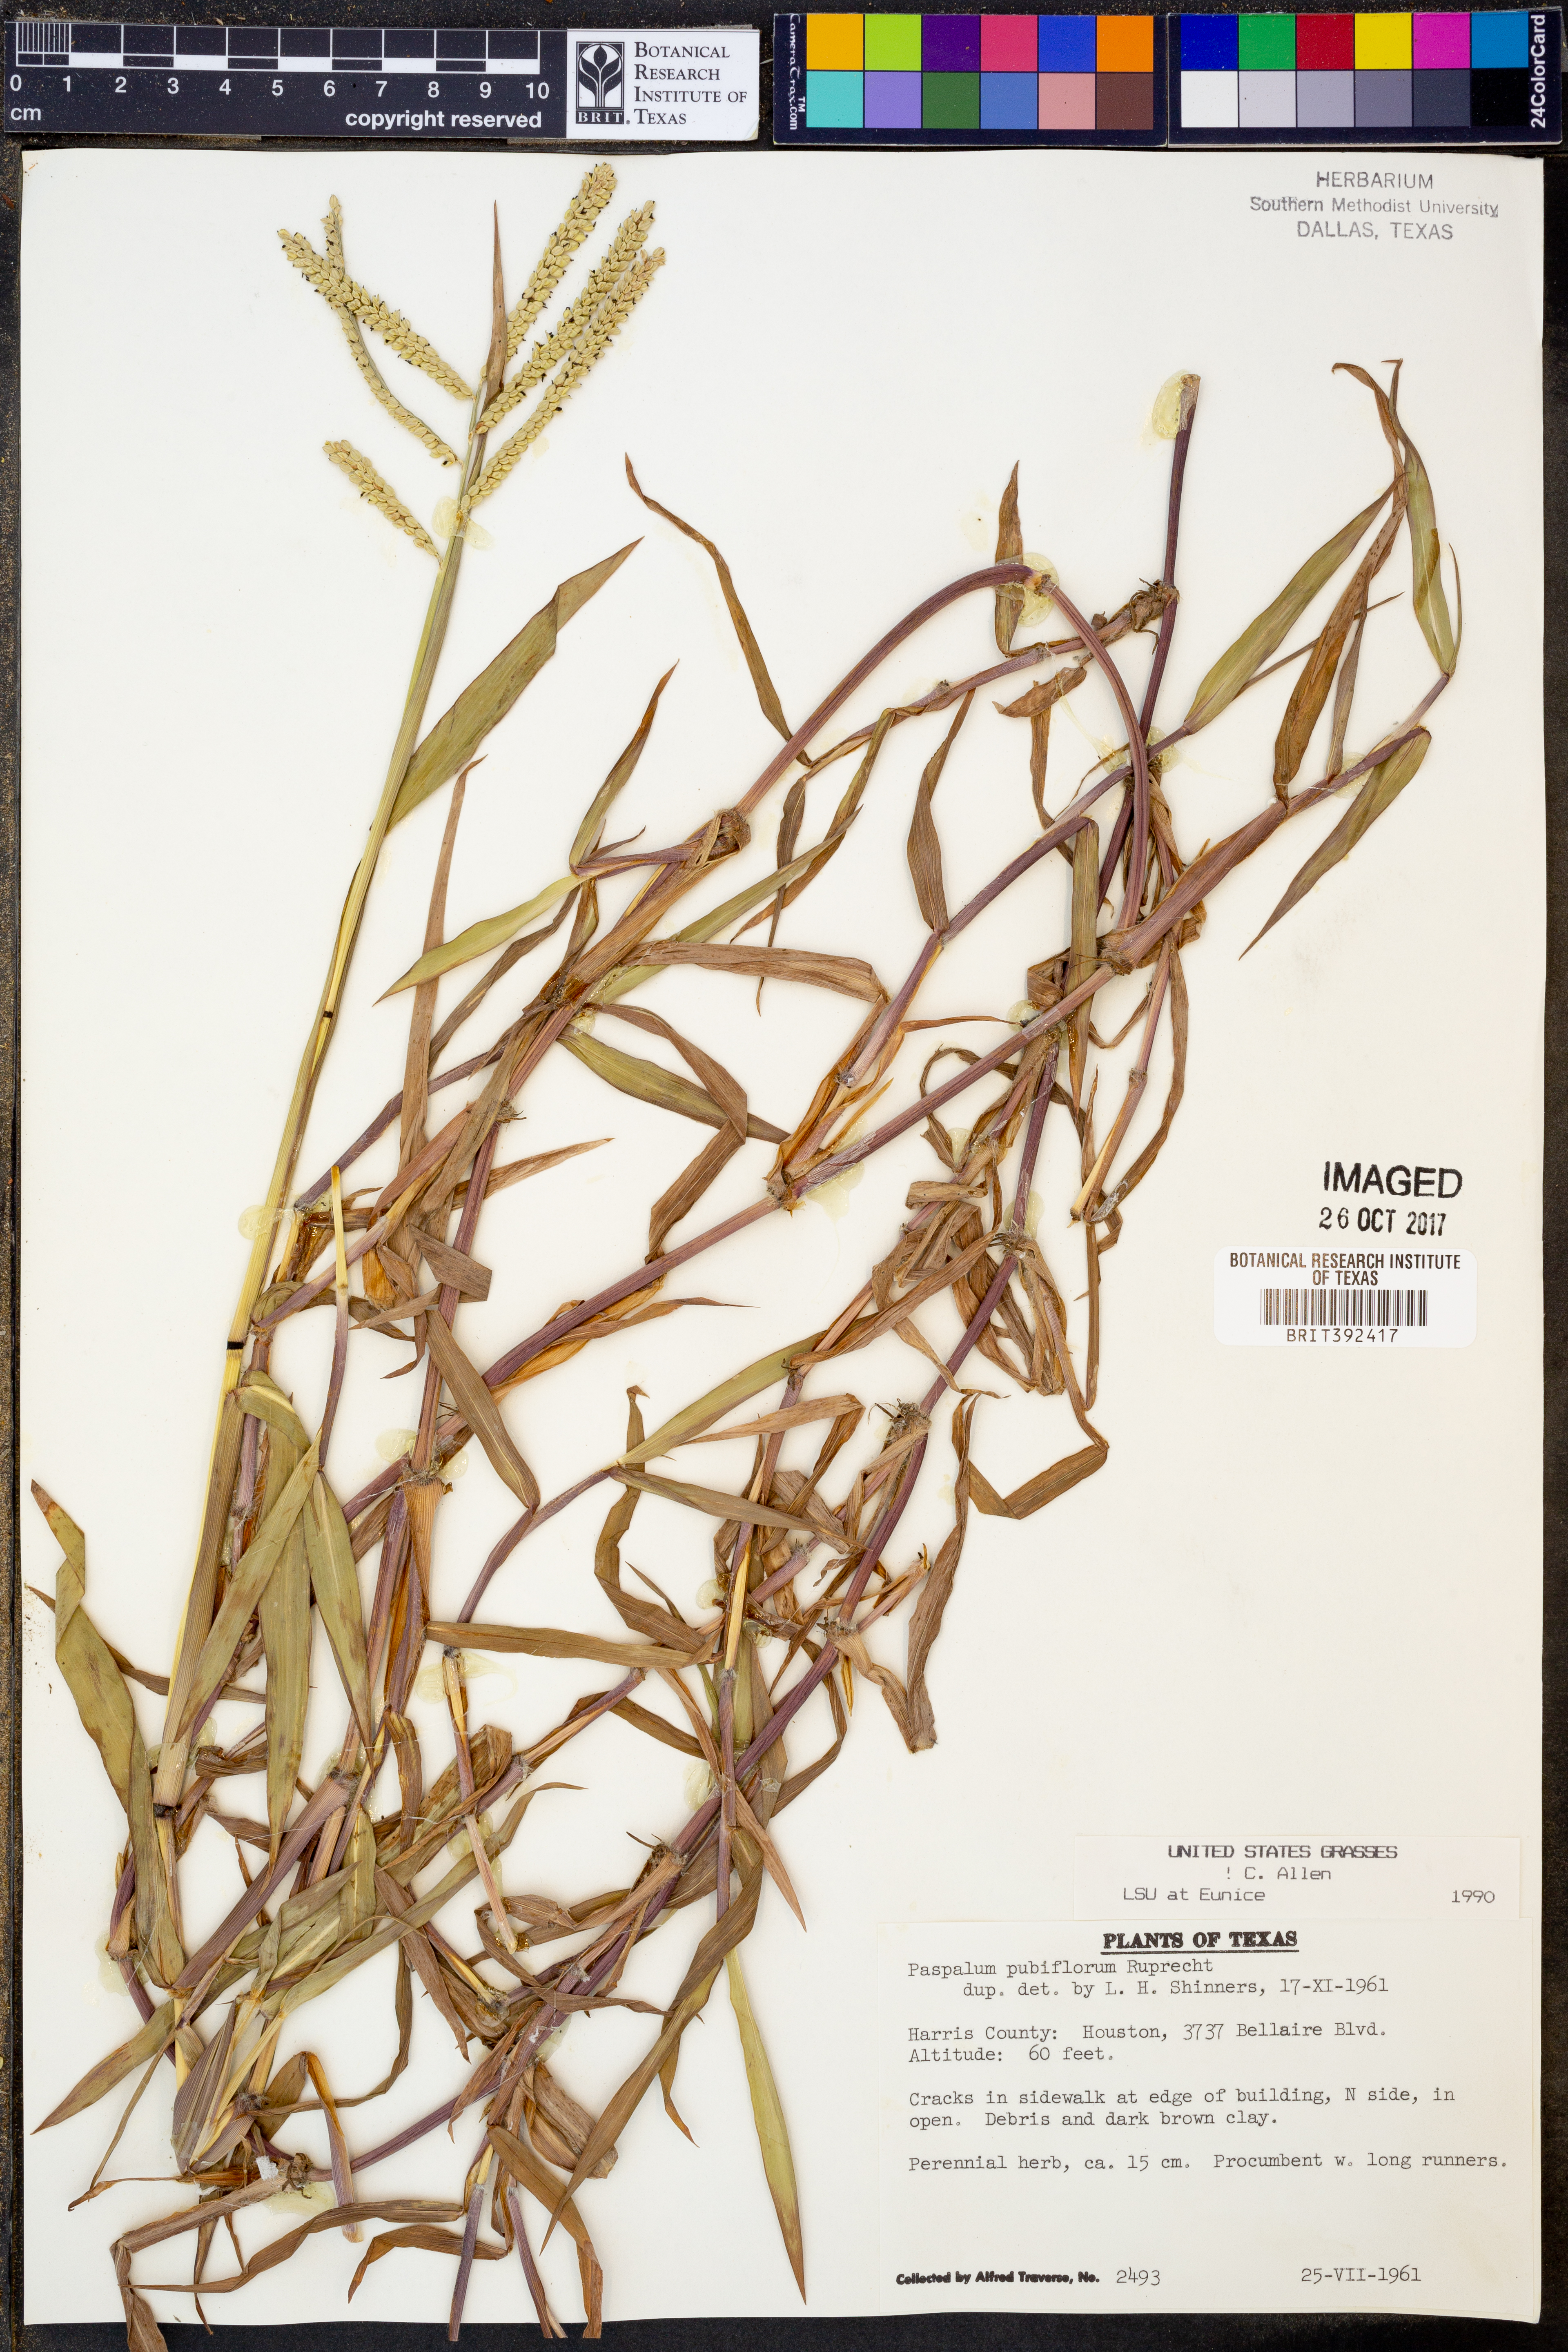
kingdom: Plantae
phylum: Tracheophyta
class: Liliopsida
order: Poales
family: Poaceae
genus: Paspalum
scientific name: Paspalum pubiflorum
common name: Hairy-seed paspalum
